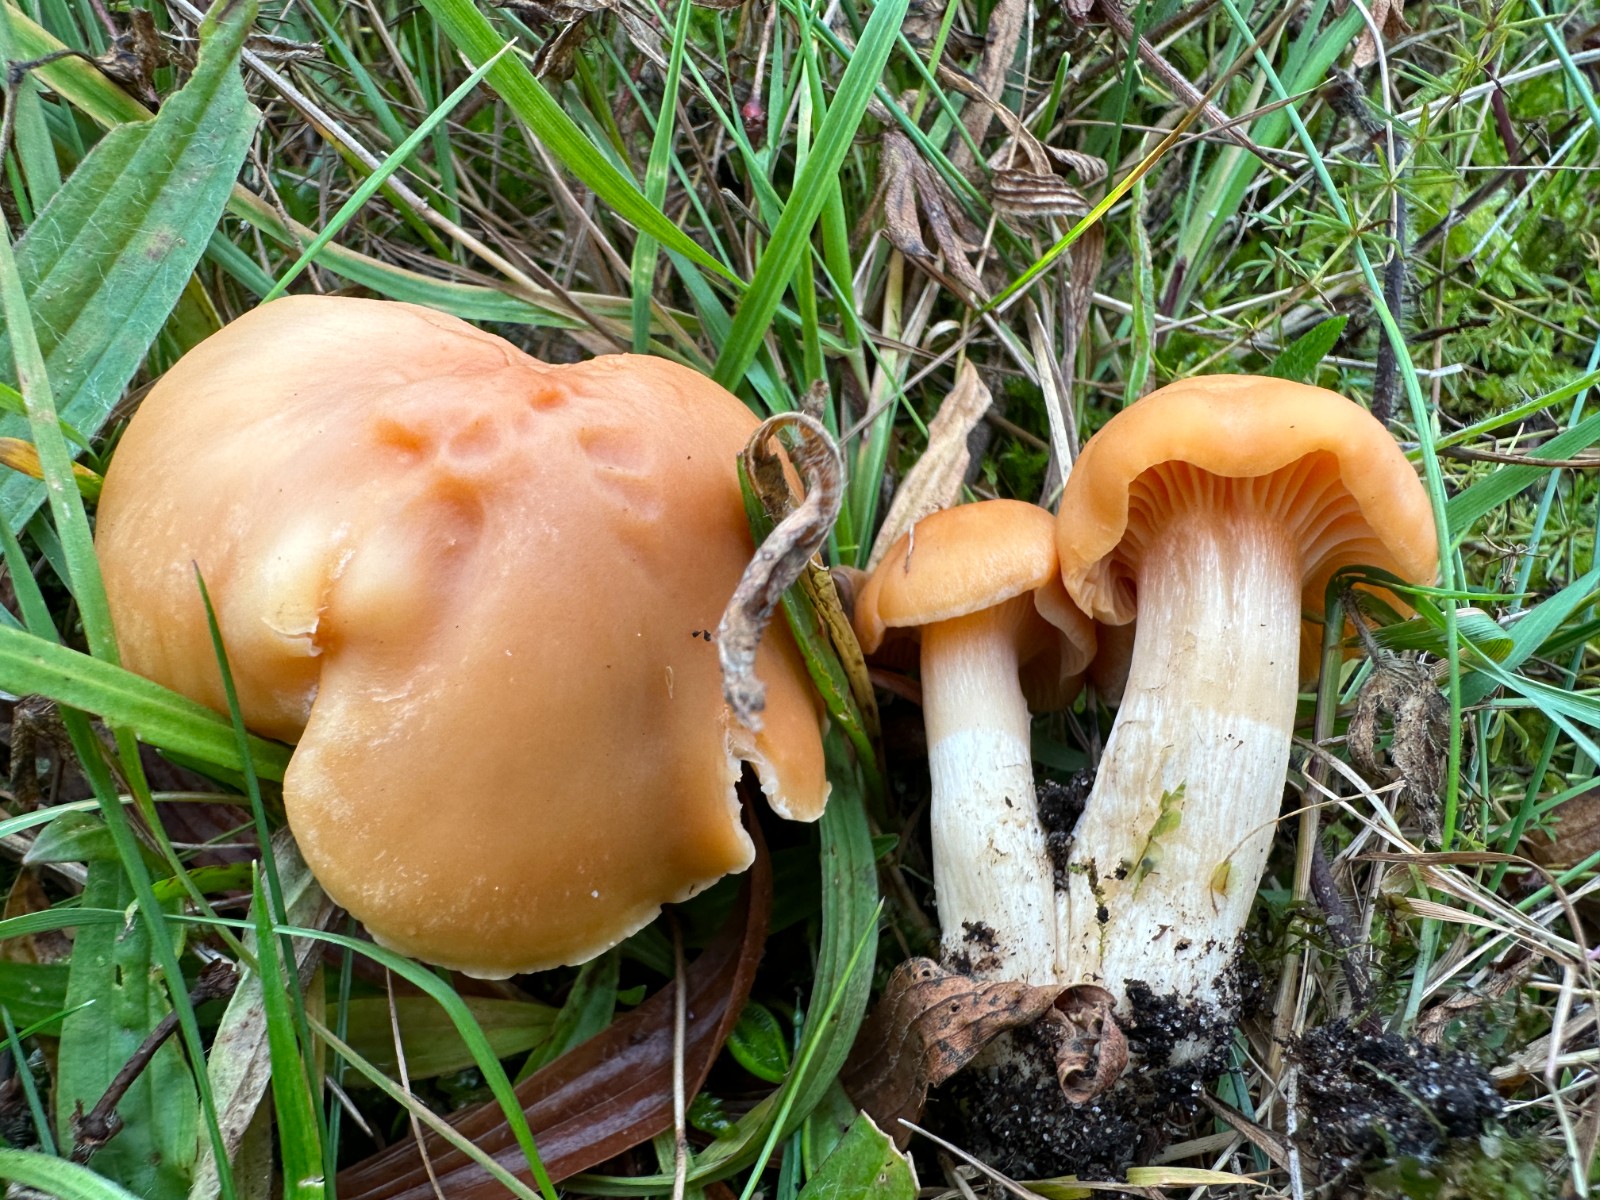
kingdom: Fungi
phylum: Basidiomycota
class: Agaricomycetes
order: Agaricales
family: Hygrophoraceae
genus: Cuphophyllus
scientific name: Cuphophyllus pratensis
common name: eng-vokshat
